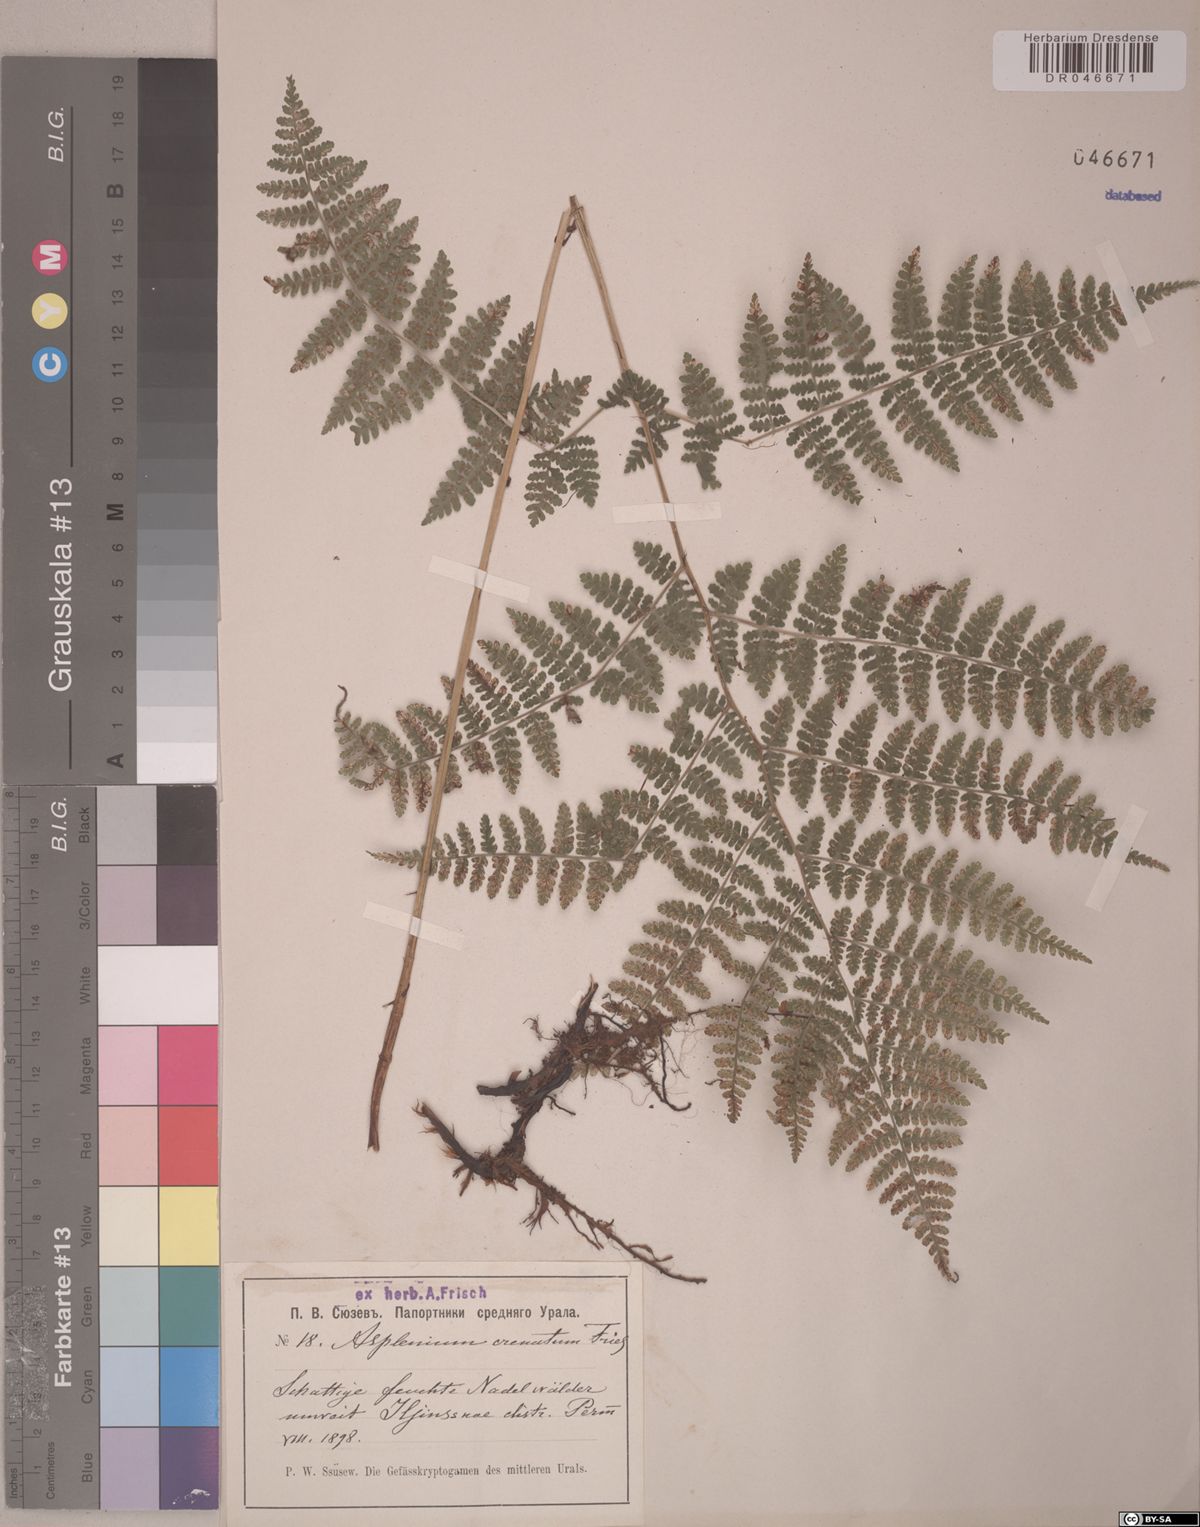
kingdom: Plantae
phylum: Tracheophyta
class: Polypodiopsida
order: Polypodiales
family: Aspleniaceae
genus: Asplenium
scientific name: Asplenium cuneatum
